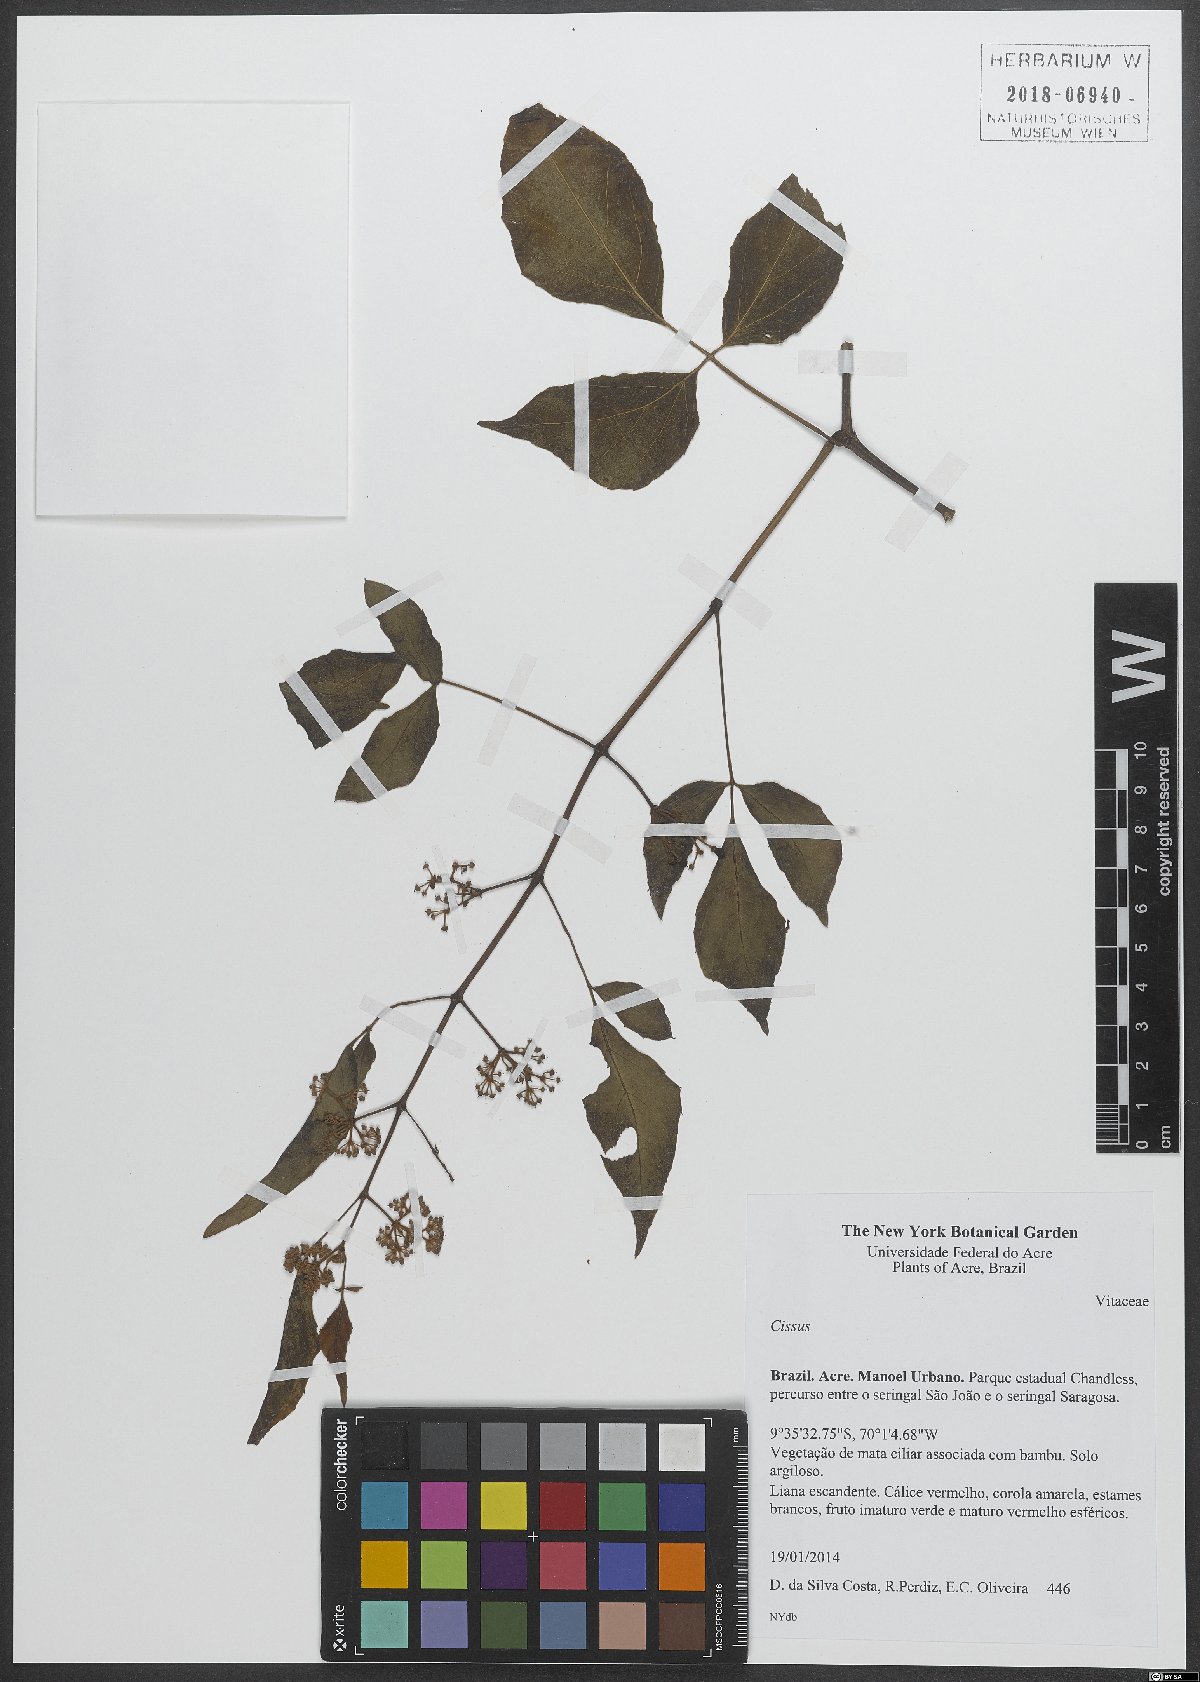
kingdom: Plantae
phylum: Tracheophyta
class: Magnoliopsida
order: Vitales
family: Vitaceae
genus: Cissus
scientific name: Cissus
